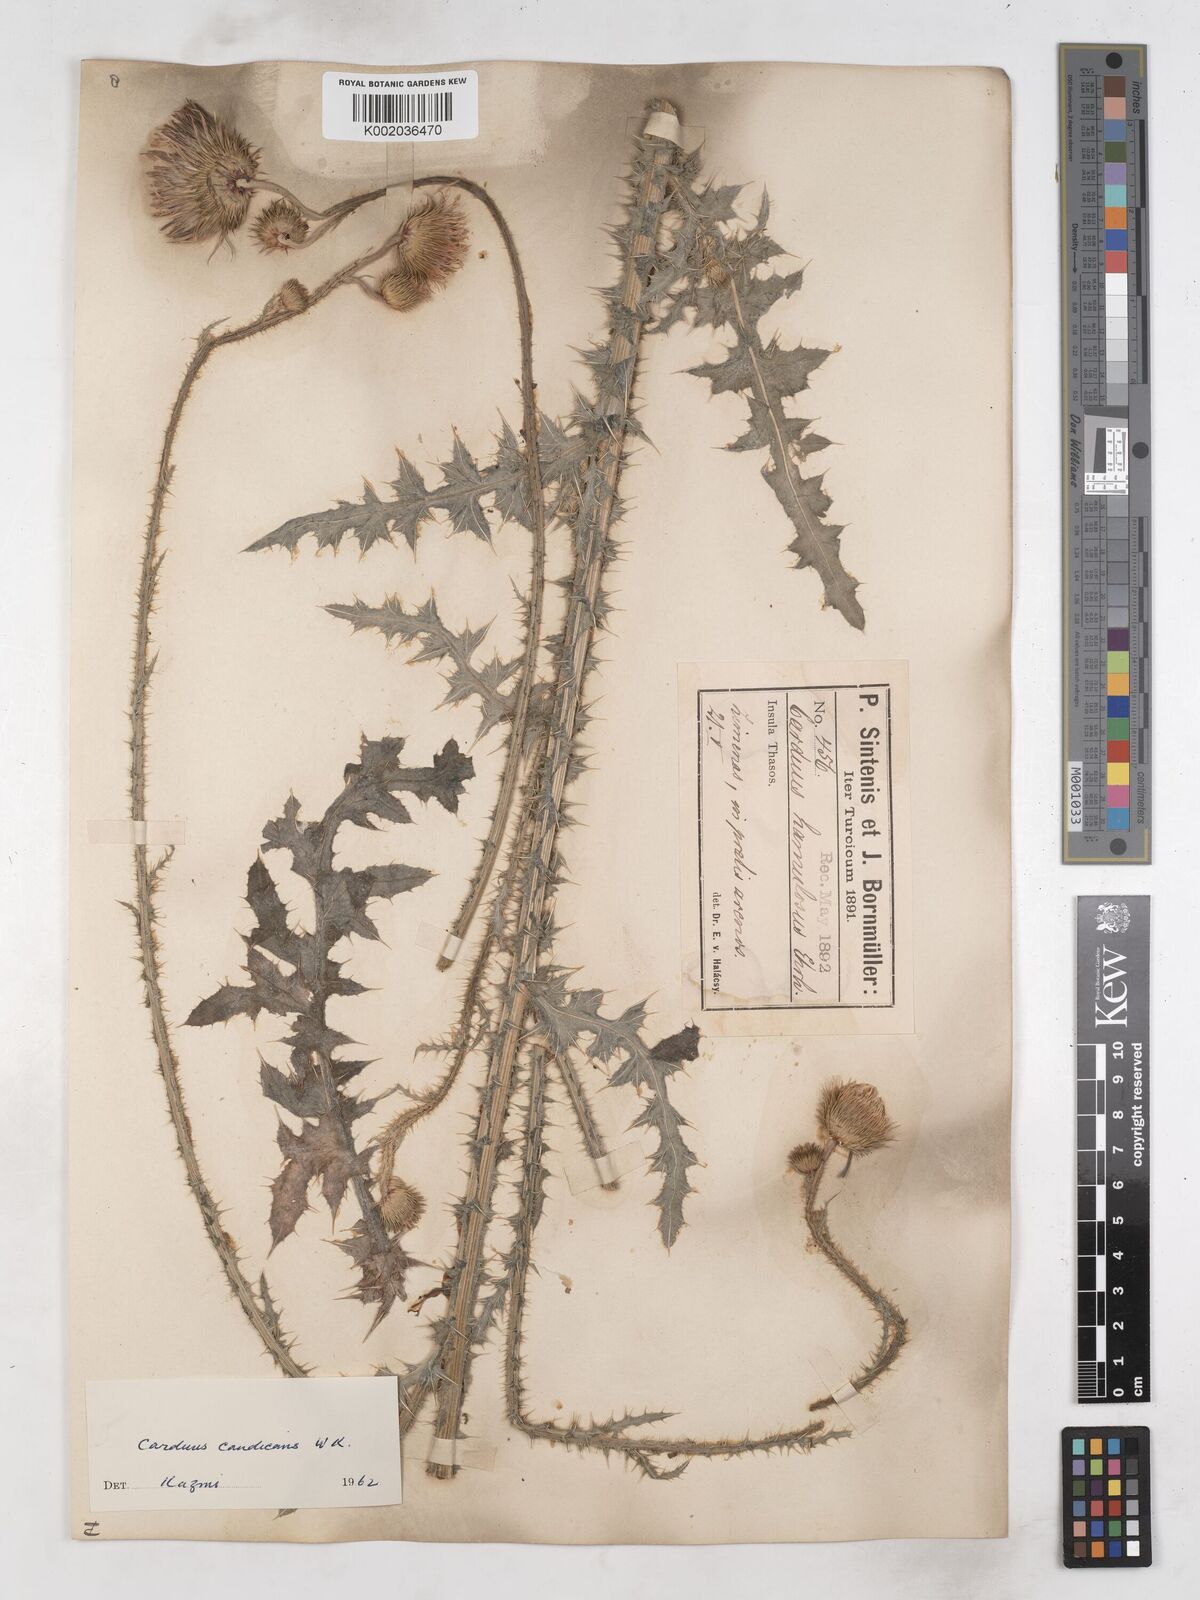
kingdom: Plantae
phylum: Tracheophyta
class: Magnoliopsida
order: Asterales
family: Asteraceae
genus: Carduus
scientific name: Carduus candicans
